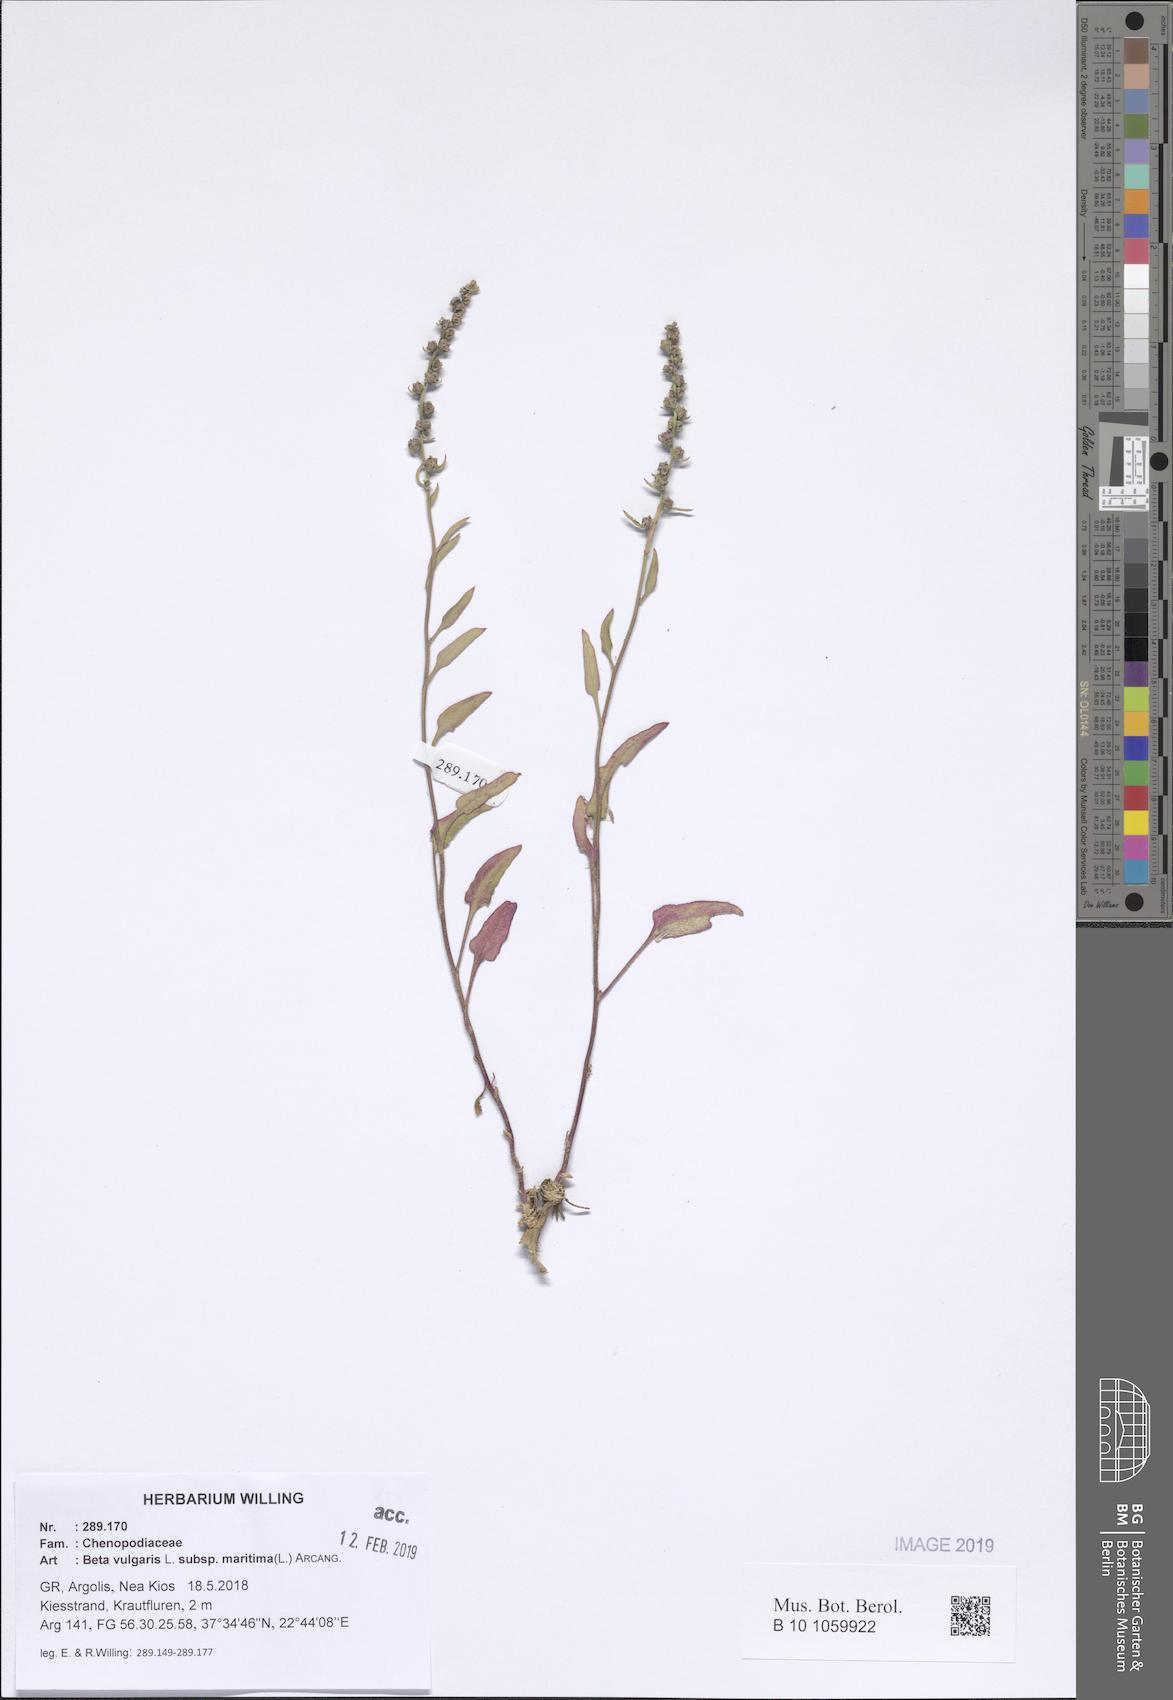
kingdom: Plantae
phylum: Tracheophyta
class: Magnoliopsida
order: Caryophyllales
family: Amaranthaceae
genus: Beta
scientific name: Beta maritima
